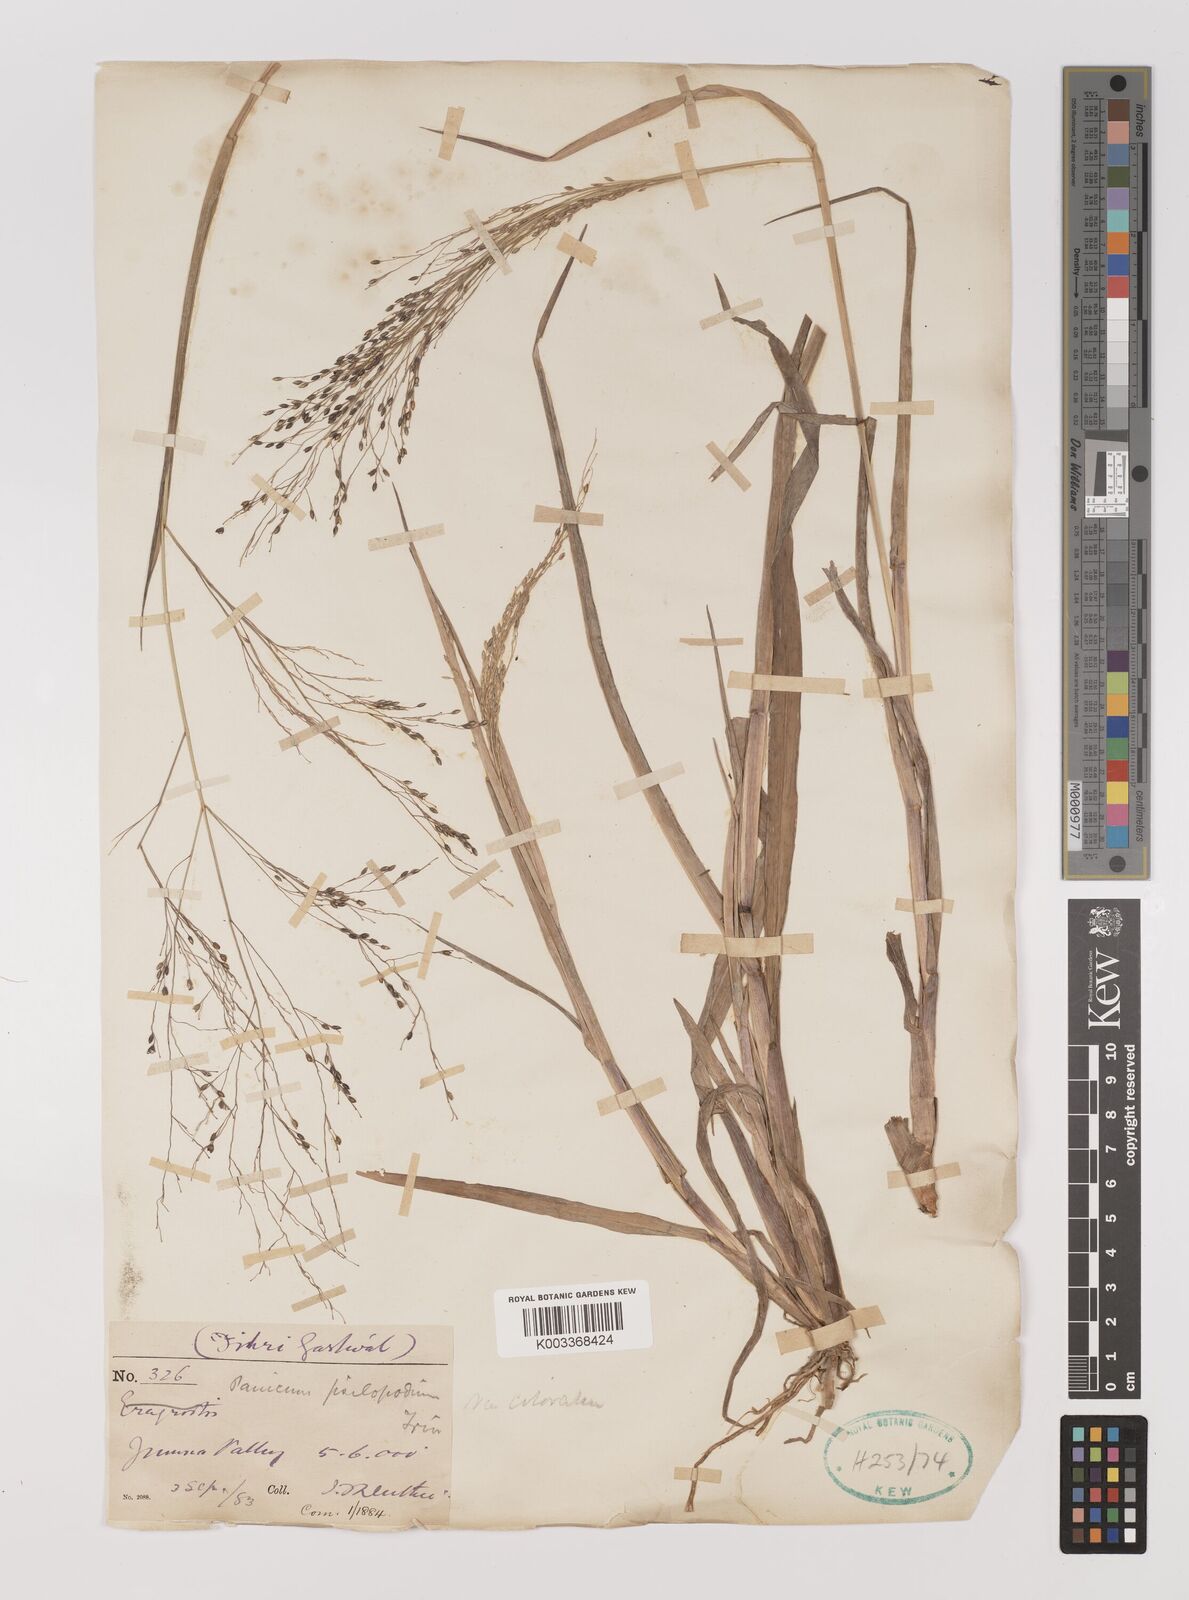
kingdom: Plantae
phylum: Tracheophyta
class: Liliopsida
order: Poales
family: Poaceae
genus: Panicum
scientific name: Panicum sumatrense
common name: Little millet
